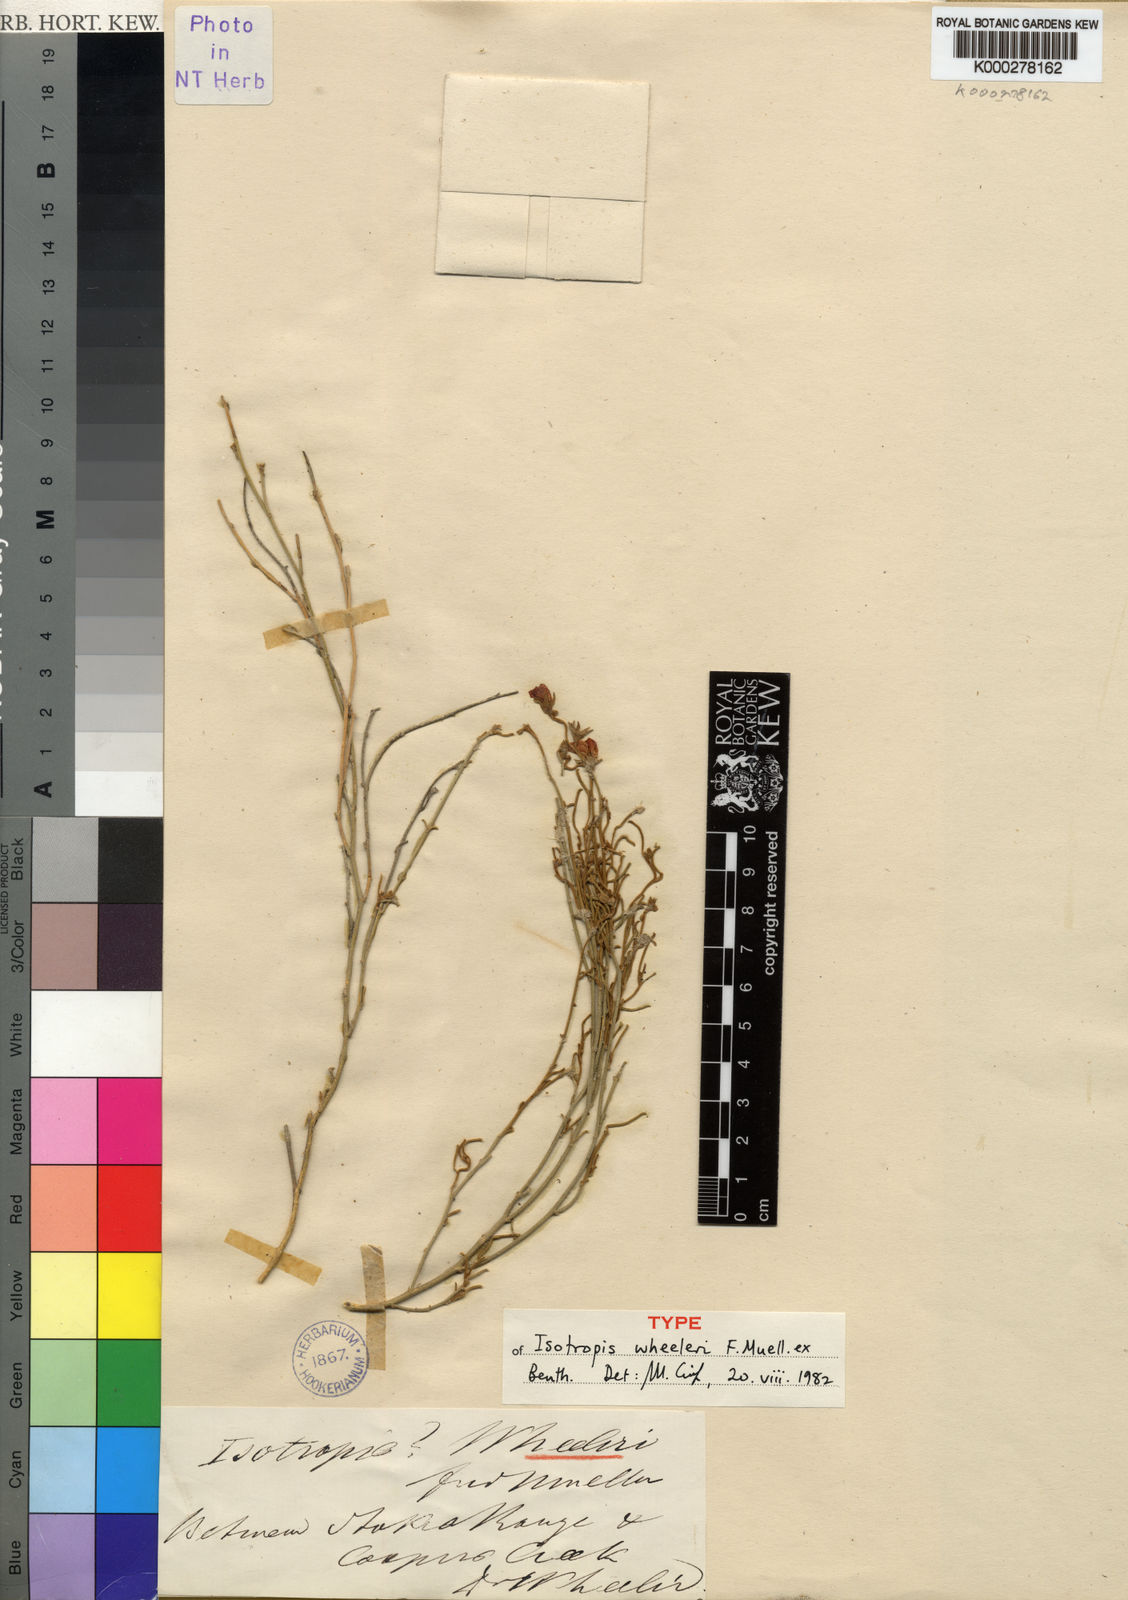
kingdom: Plantae
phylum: Tracheophyta
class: Magnoliopsida
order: Fabales
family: Fabaceae
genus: Isotropis
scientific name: Isotropis wheeleri
